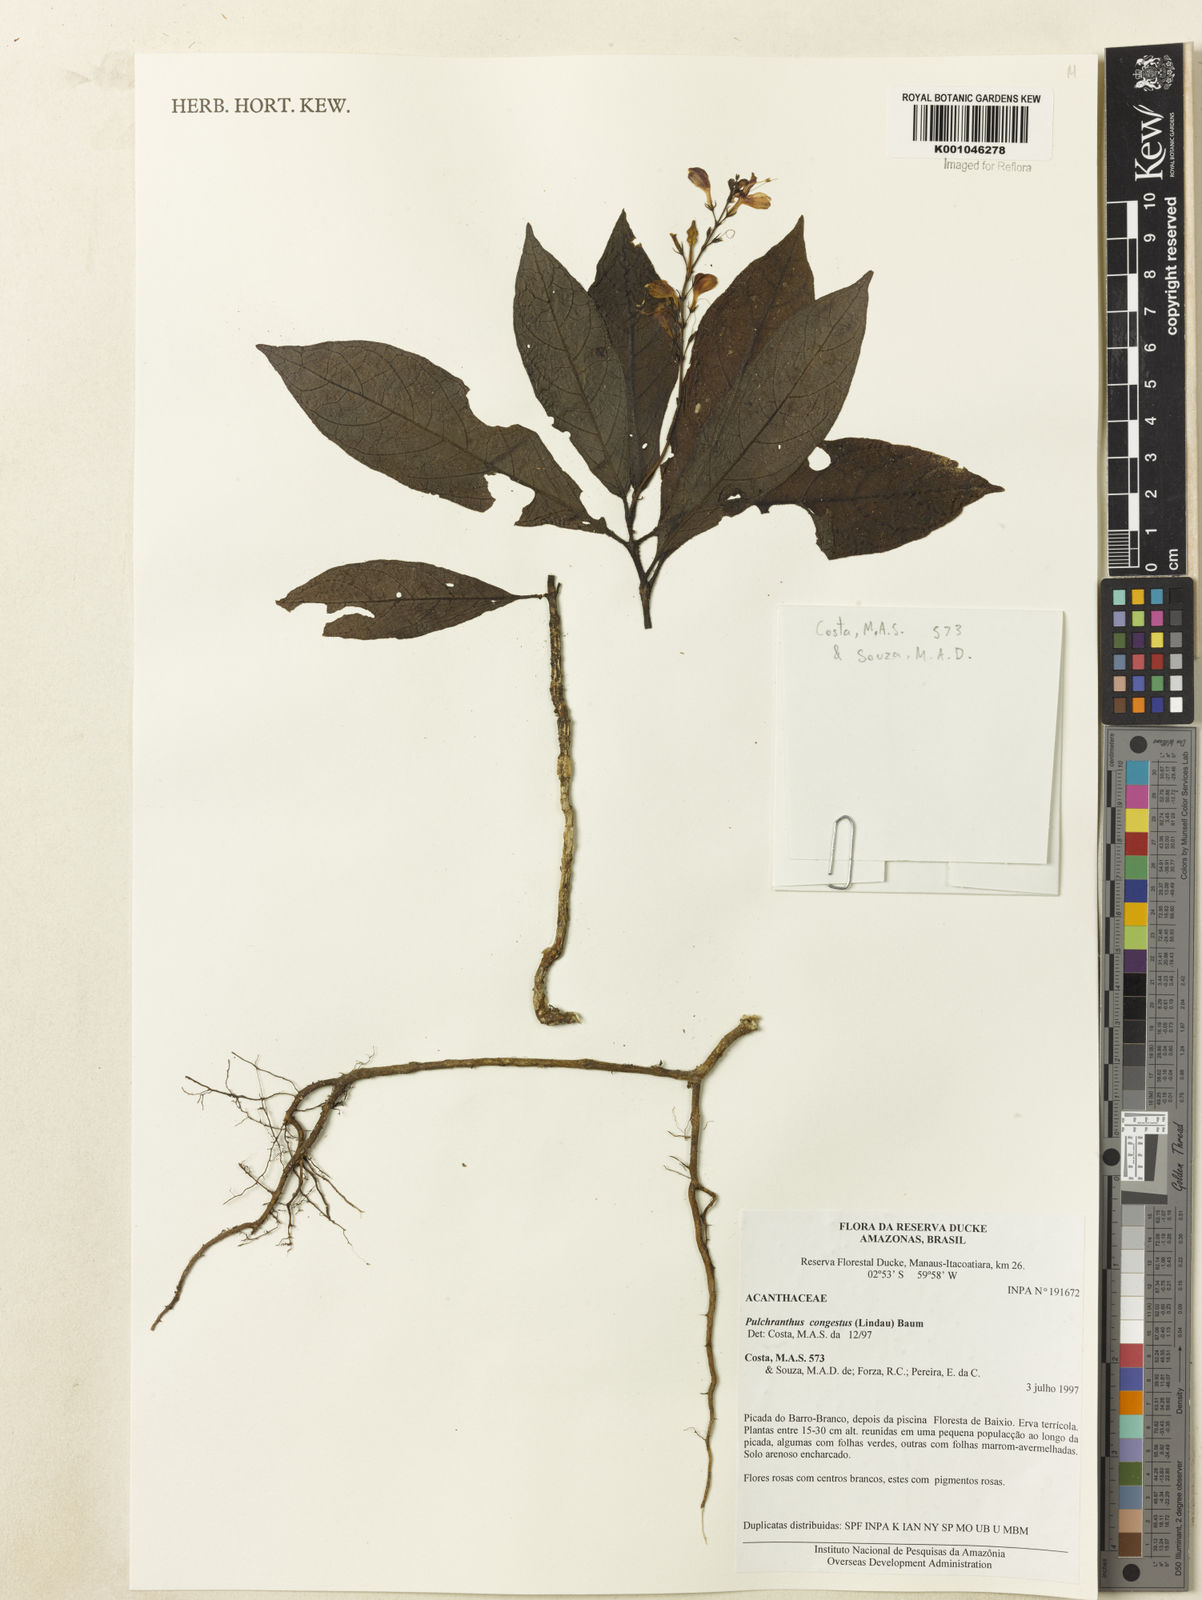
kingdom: Plantae
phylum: Tracheophyta
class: Magnoliopsida
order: Lamiales
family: Acanthaceae
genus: Pulchranthus
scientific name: Pulchranthus
